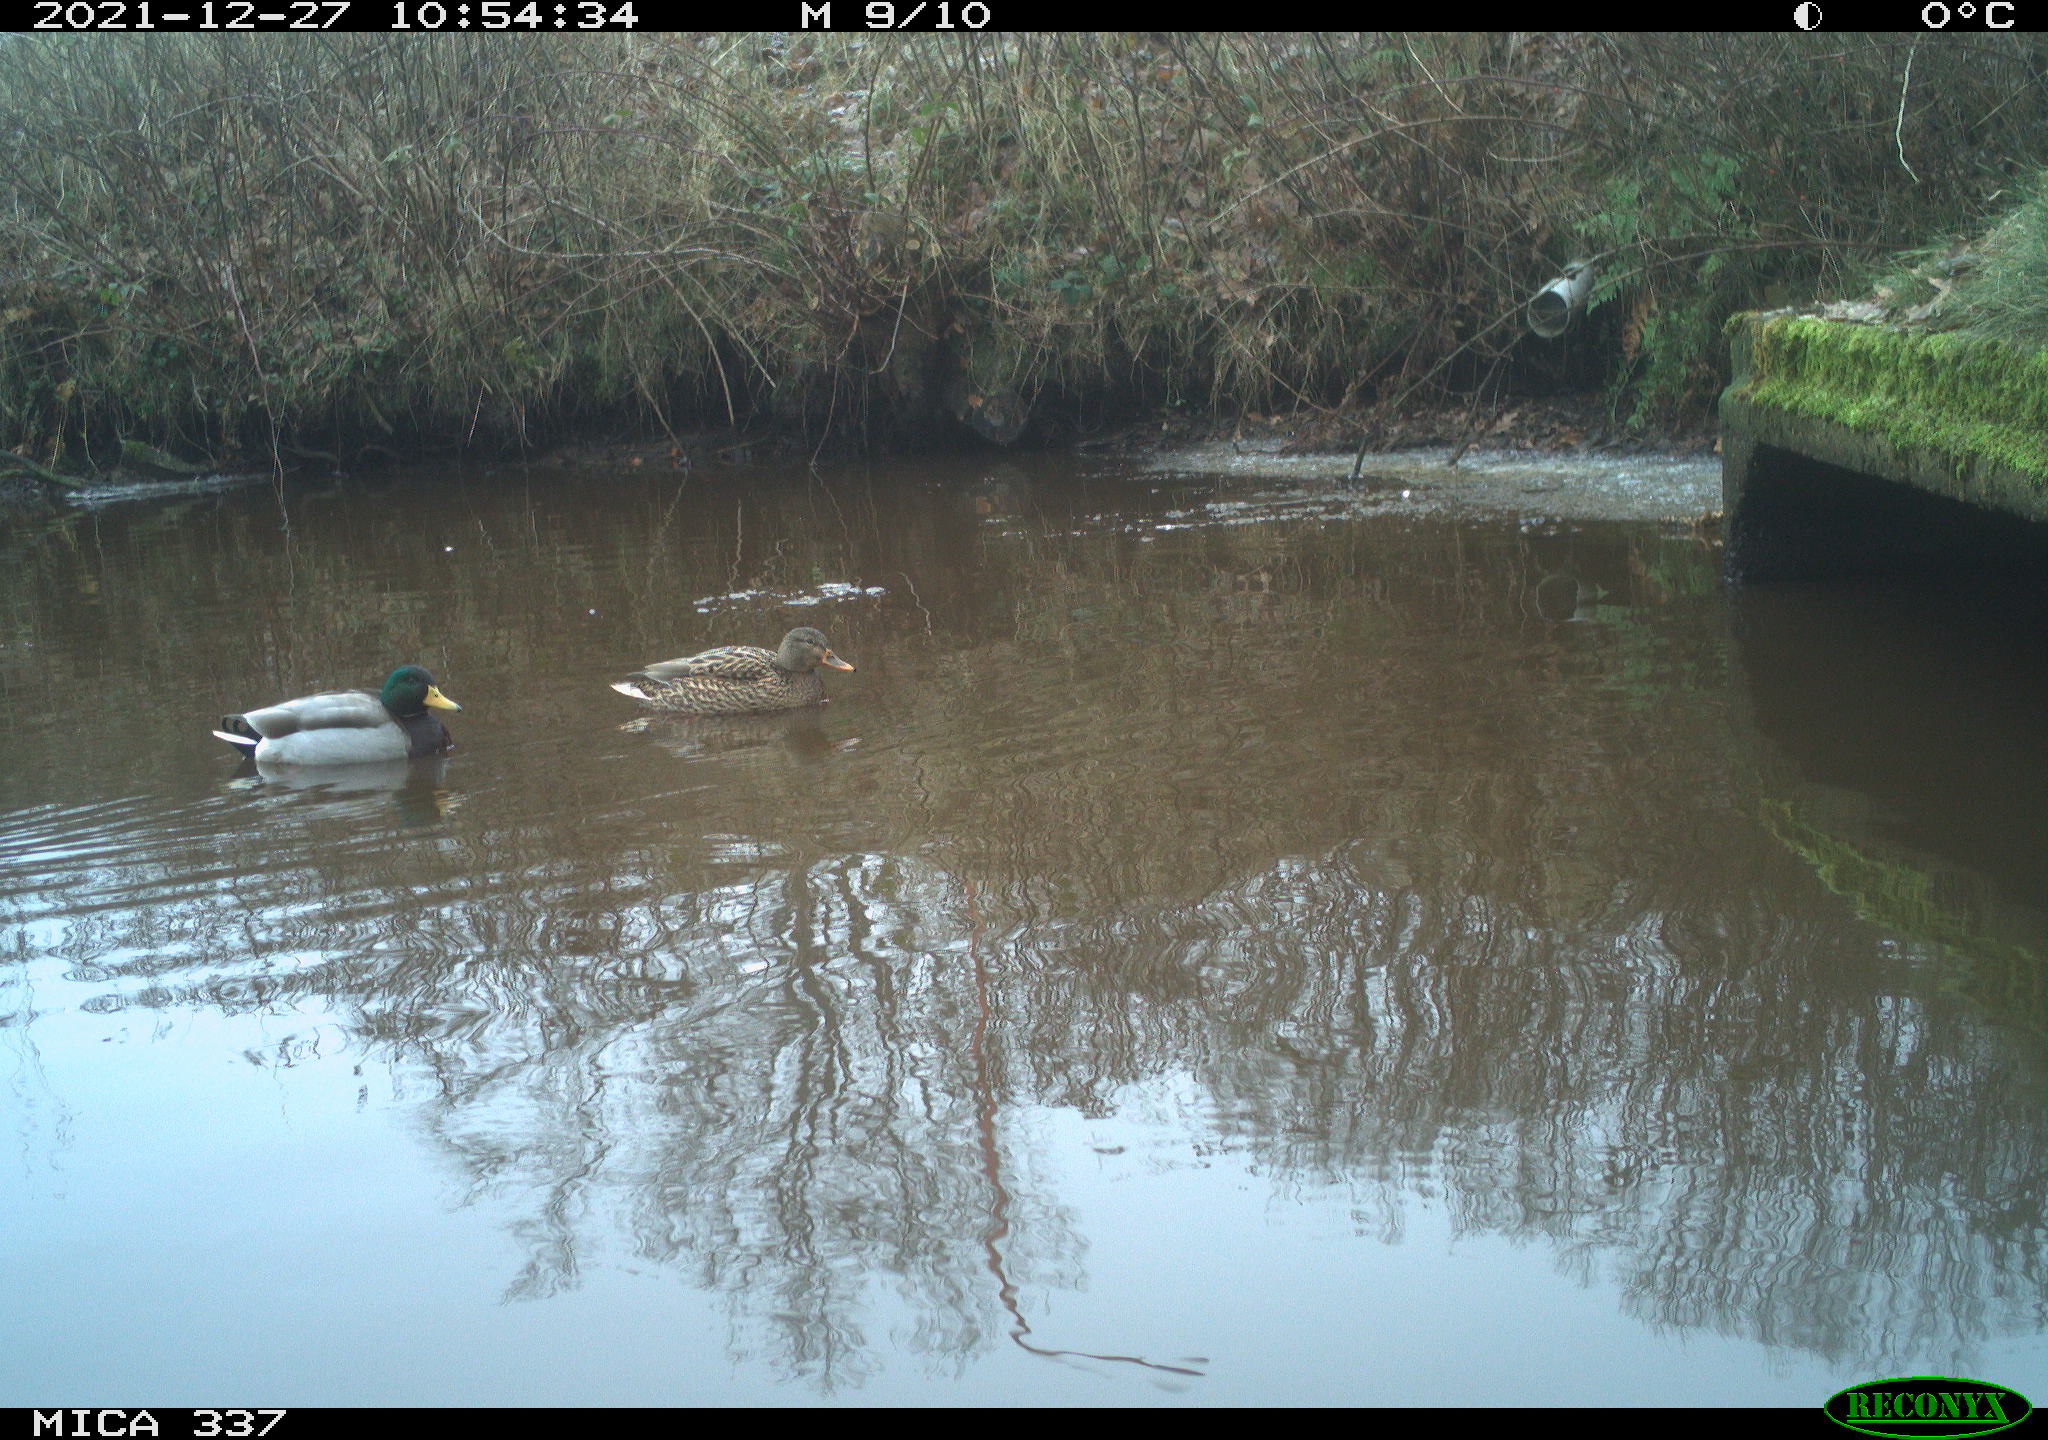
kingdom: Animalia
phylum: Chordata
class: Aves
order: Anseriformes
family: Anatidae
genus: Anas
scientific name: Anas platyrhynchos
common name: Mallard
